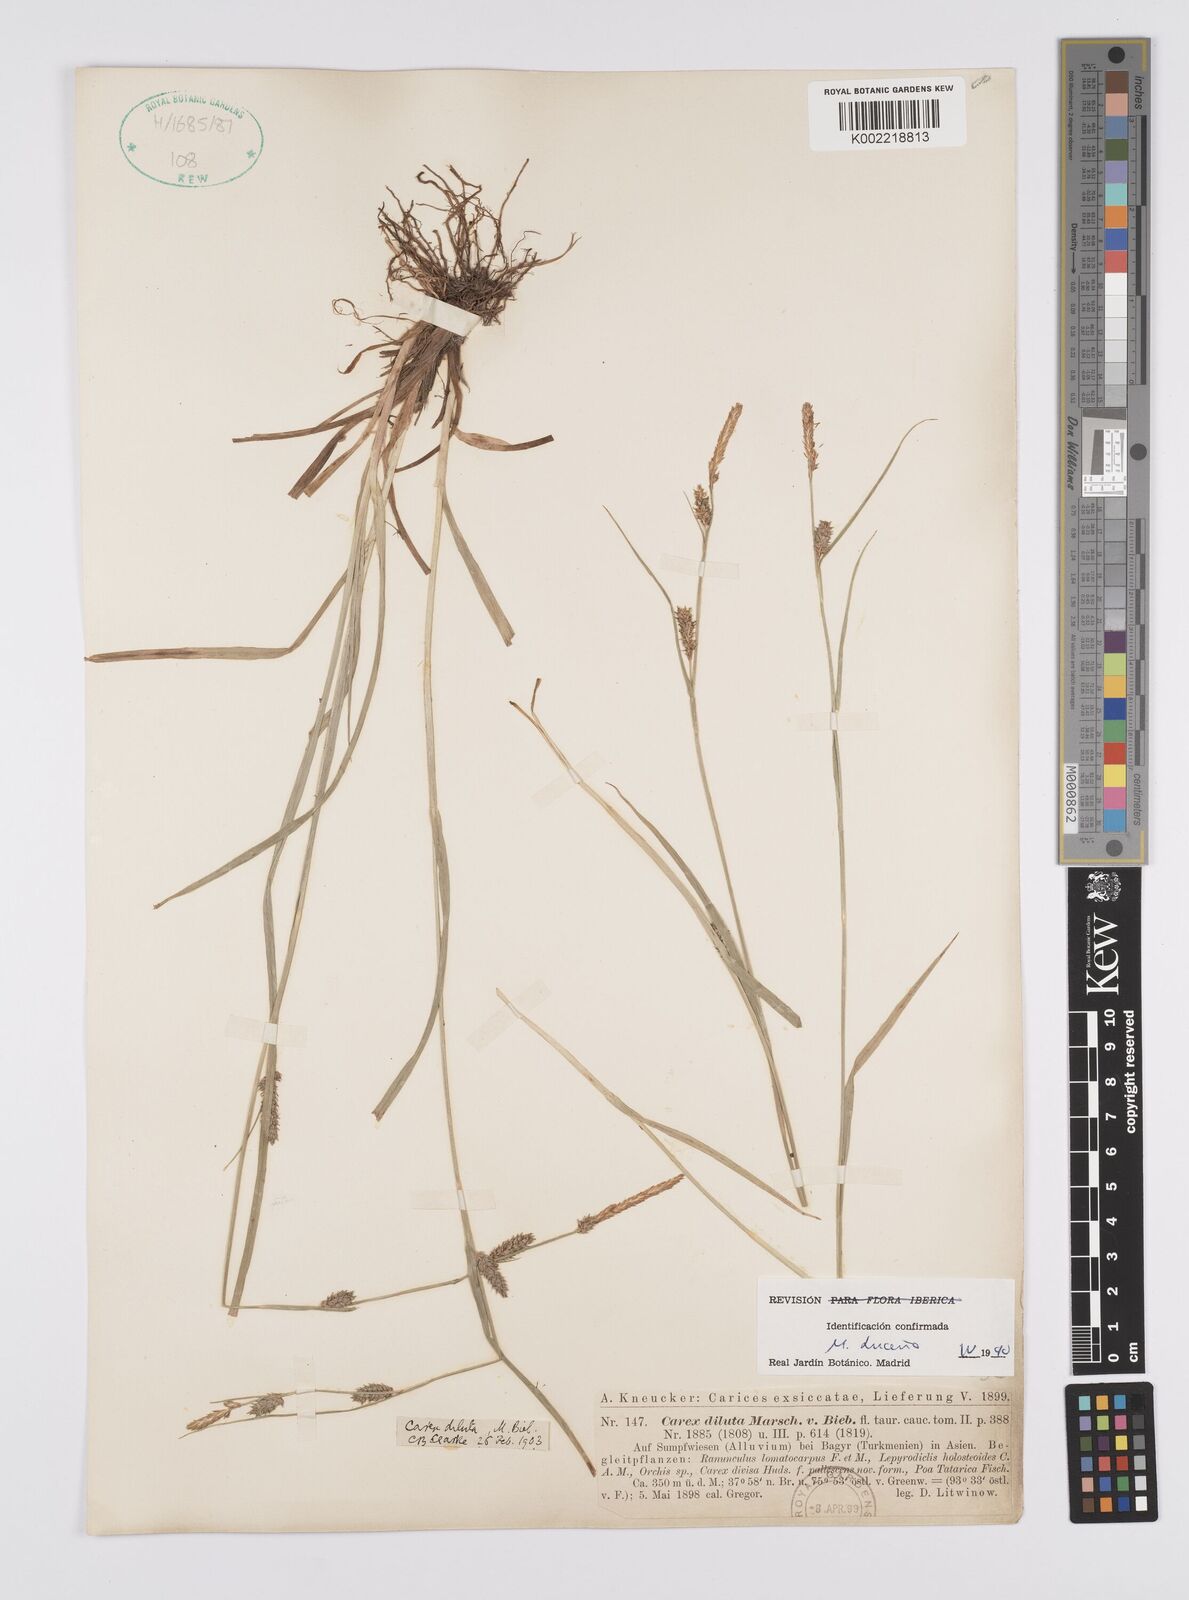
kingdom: Plantae
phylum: Tracheophyta
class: Liliopsida
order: Poales
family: Cyperaceae
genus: Carex
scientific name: Carex diluta
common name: Sedge
